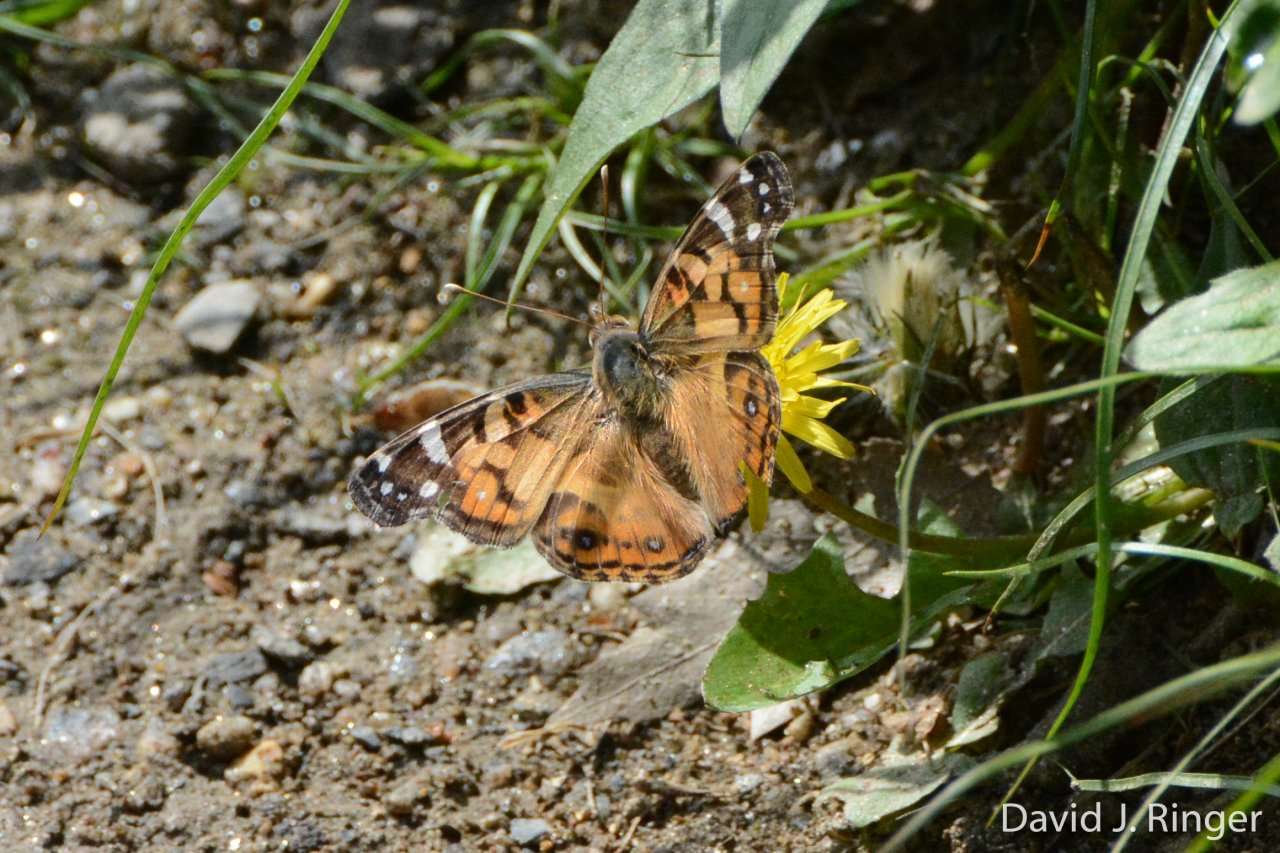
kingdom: Animalia
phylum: Arthropoda
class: Insecta
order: Lepidoptera
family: Nymphalidae
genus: Vanessa
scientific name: Vanessa virginiensis
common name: American Lady
